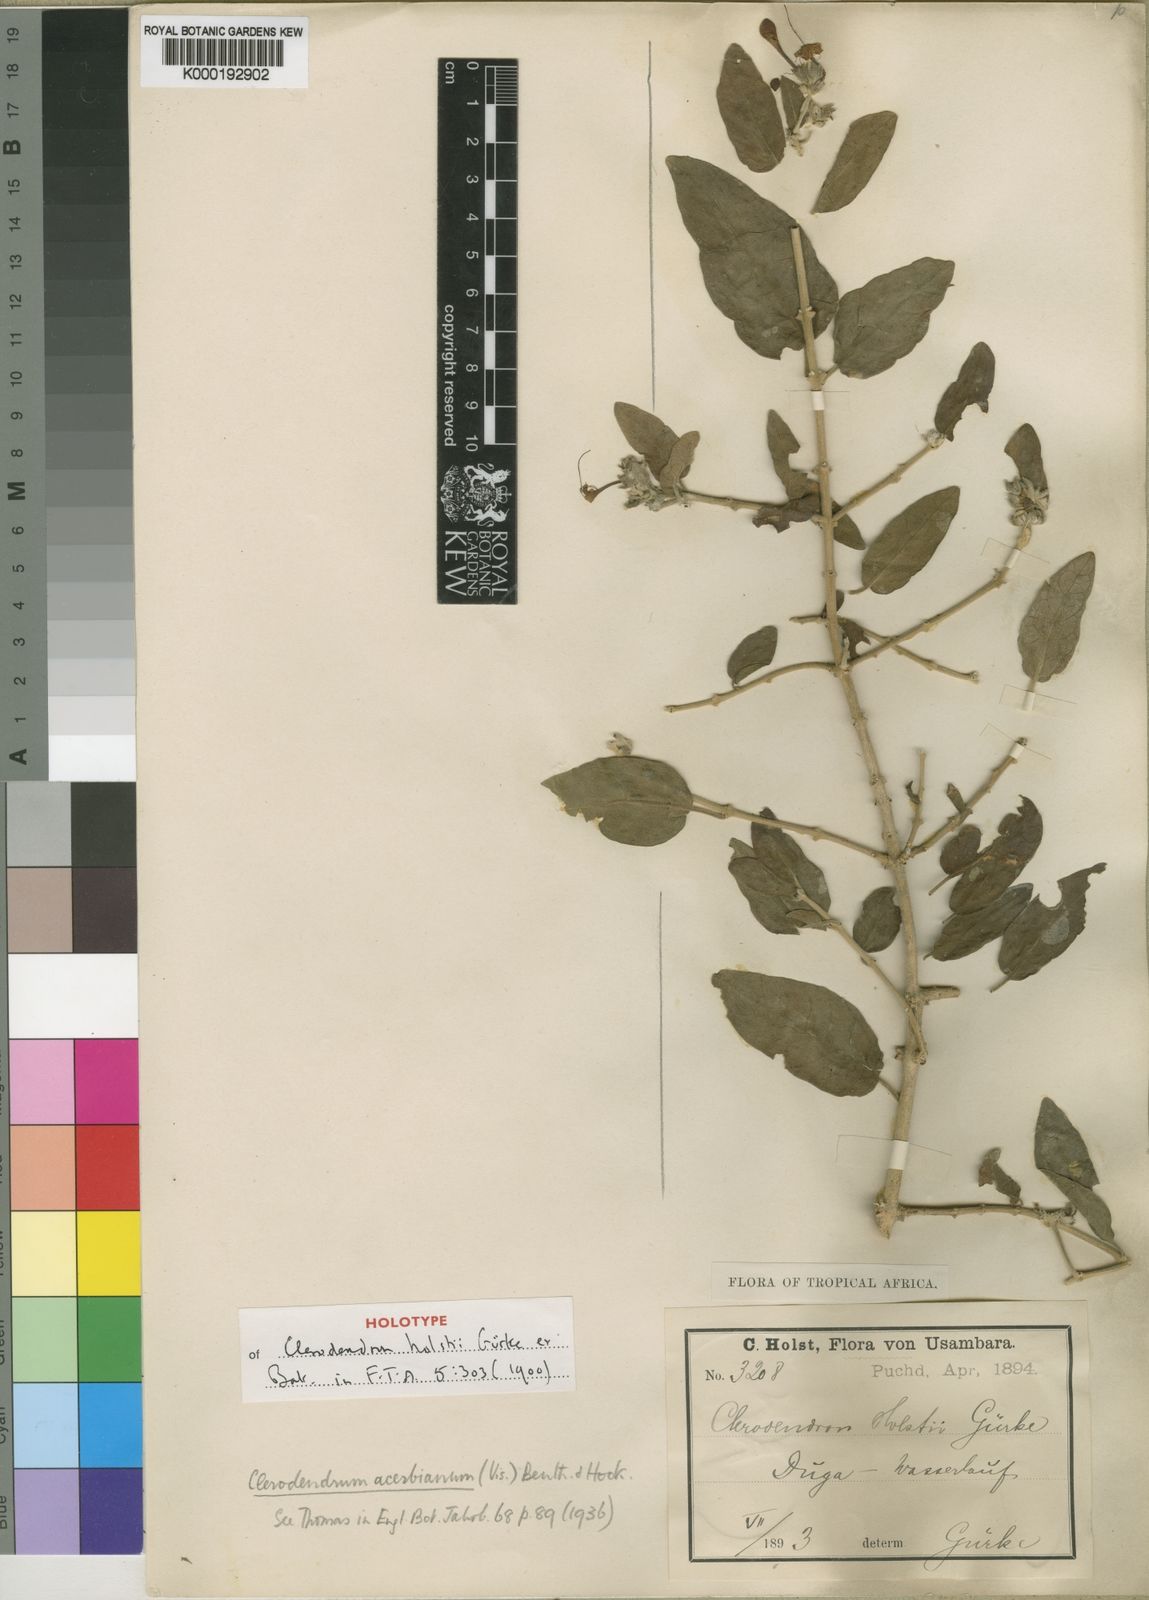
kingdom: Plantae
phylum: Tracheophyta
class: Magnoliopsida
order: Lamiales
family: Lamiaceae
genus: Volkameria
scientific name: Volkameria acerbiana
